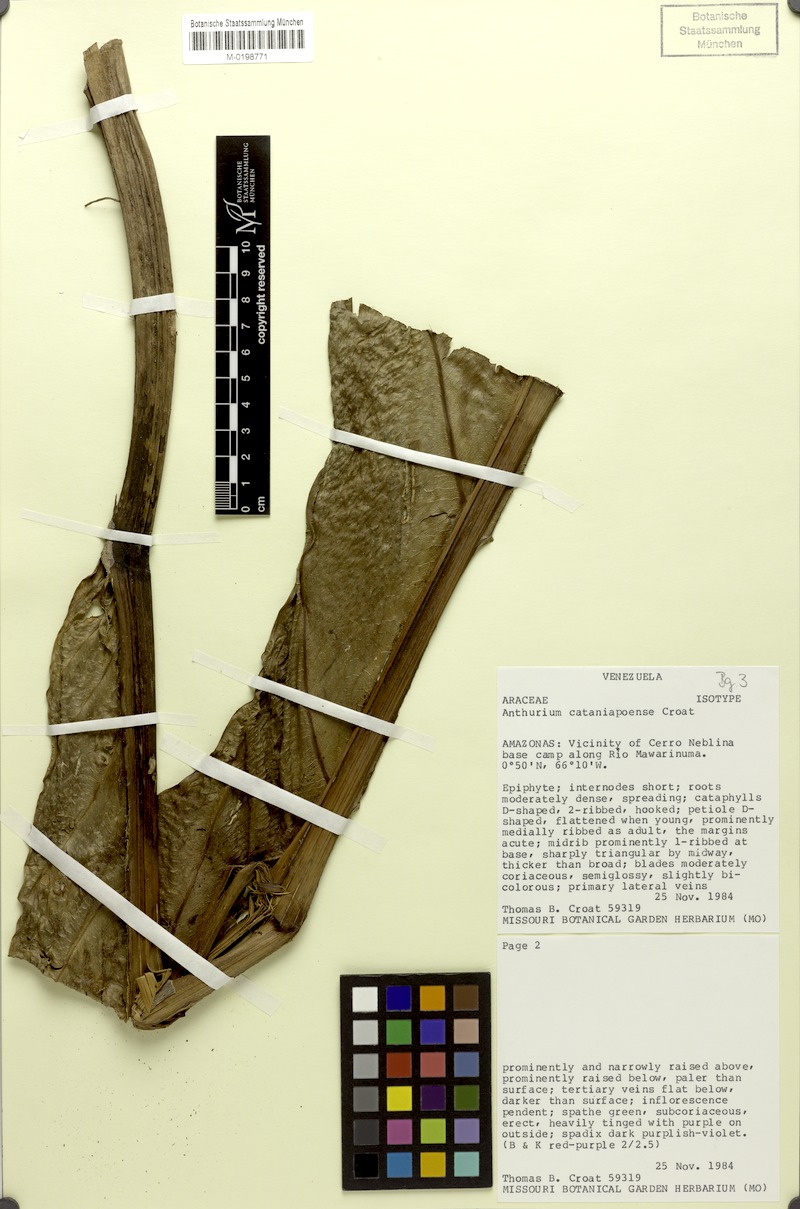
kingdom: Plantae
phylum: Tracheophyta
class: Liliopsida
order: Alismatales
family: Araceae
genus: Anthurium
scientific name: Anthurium cataniapoense
